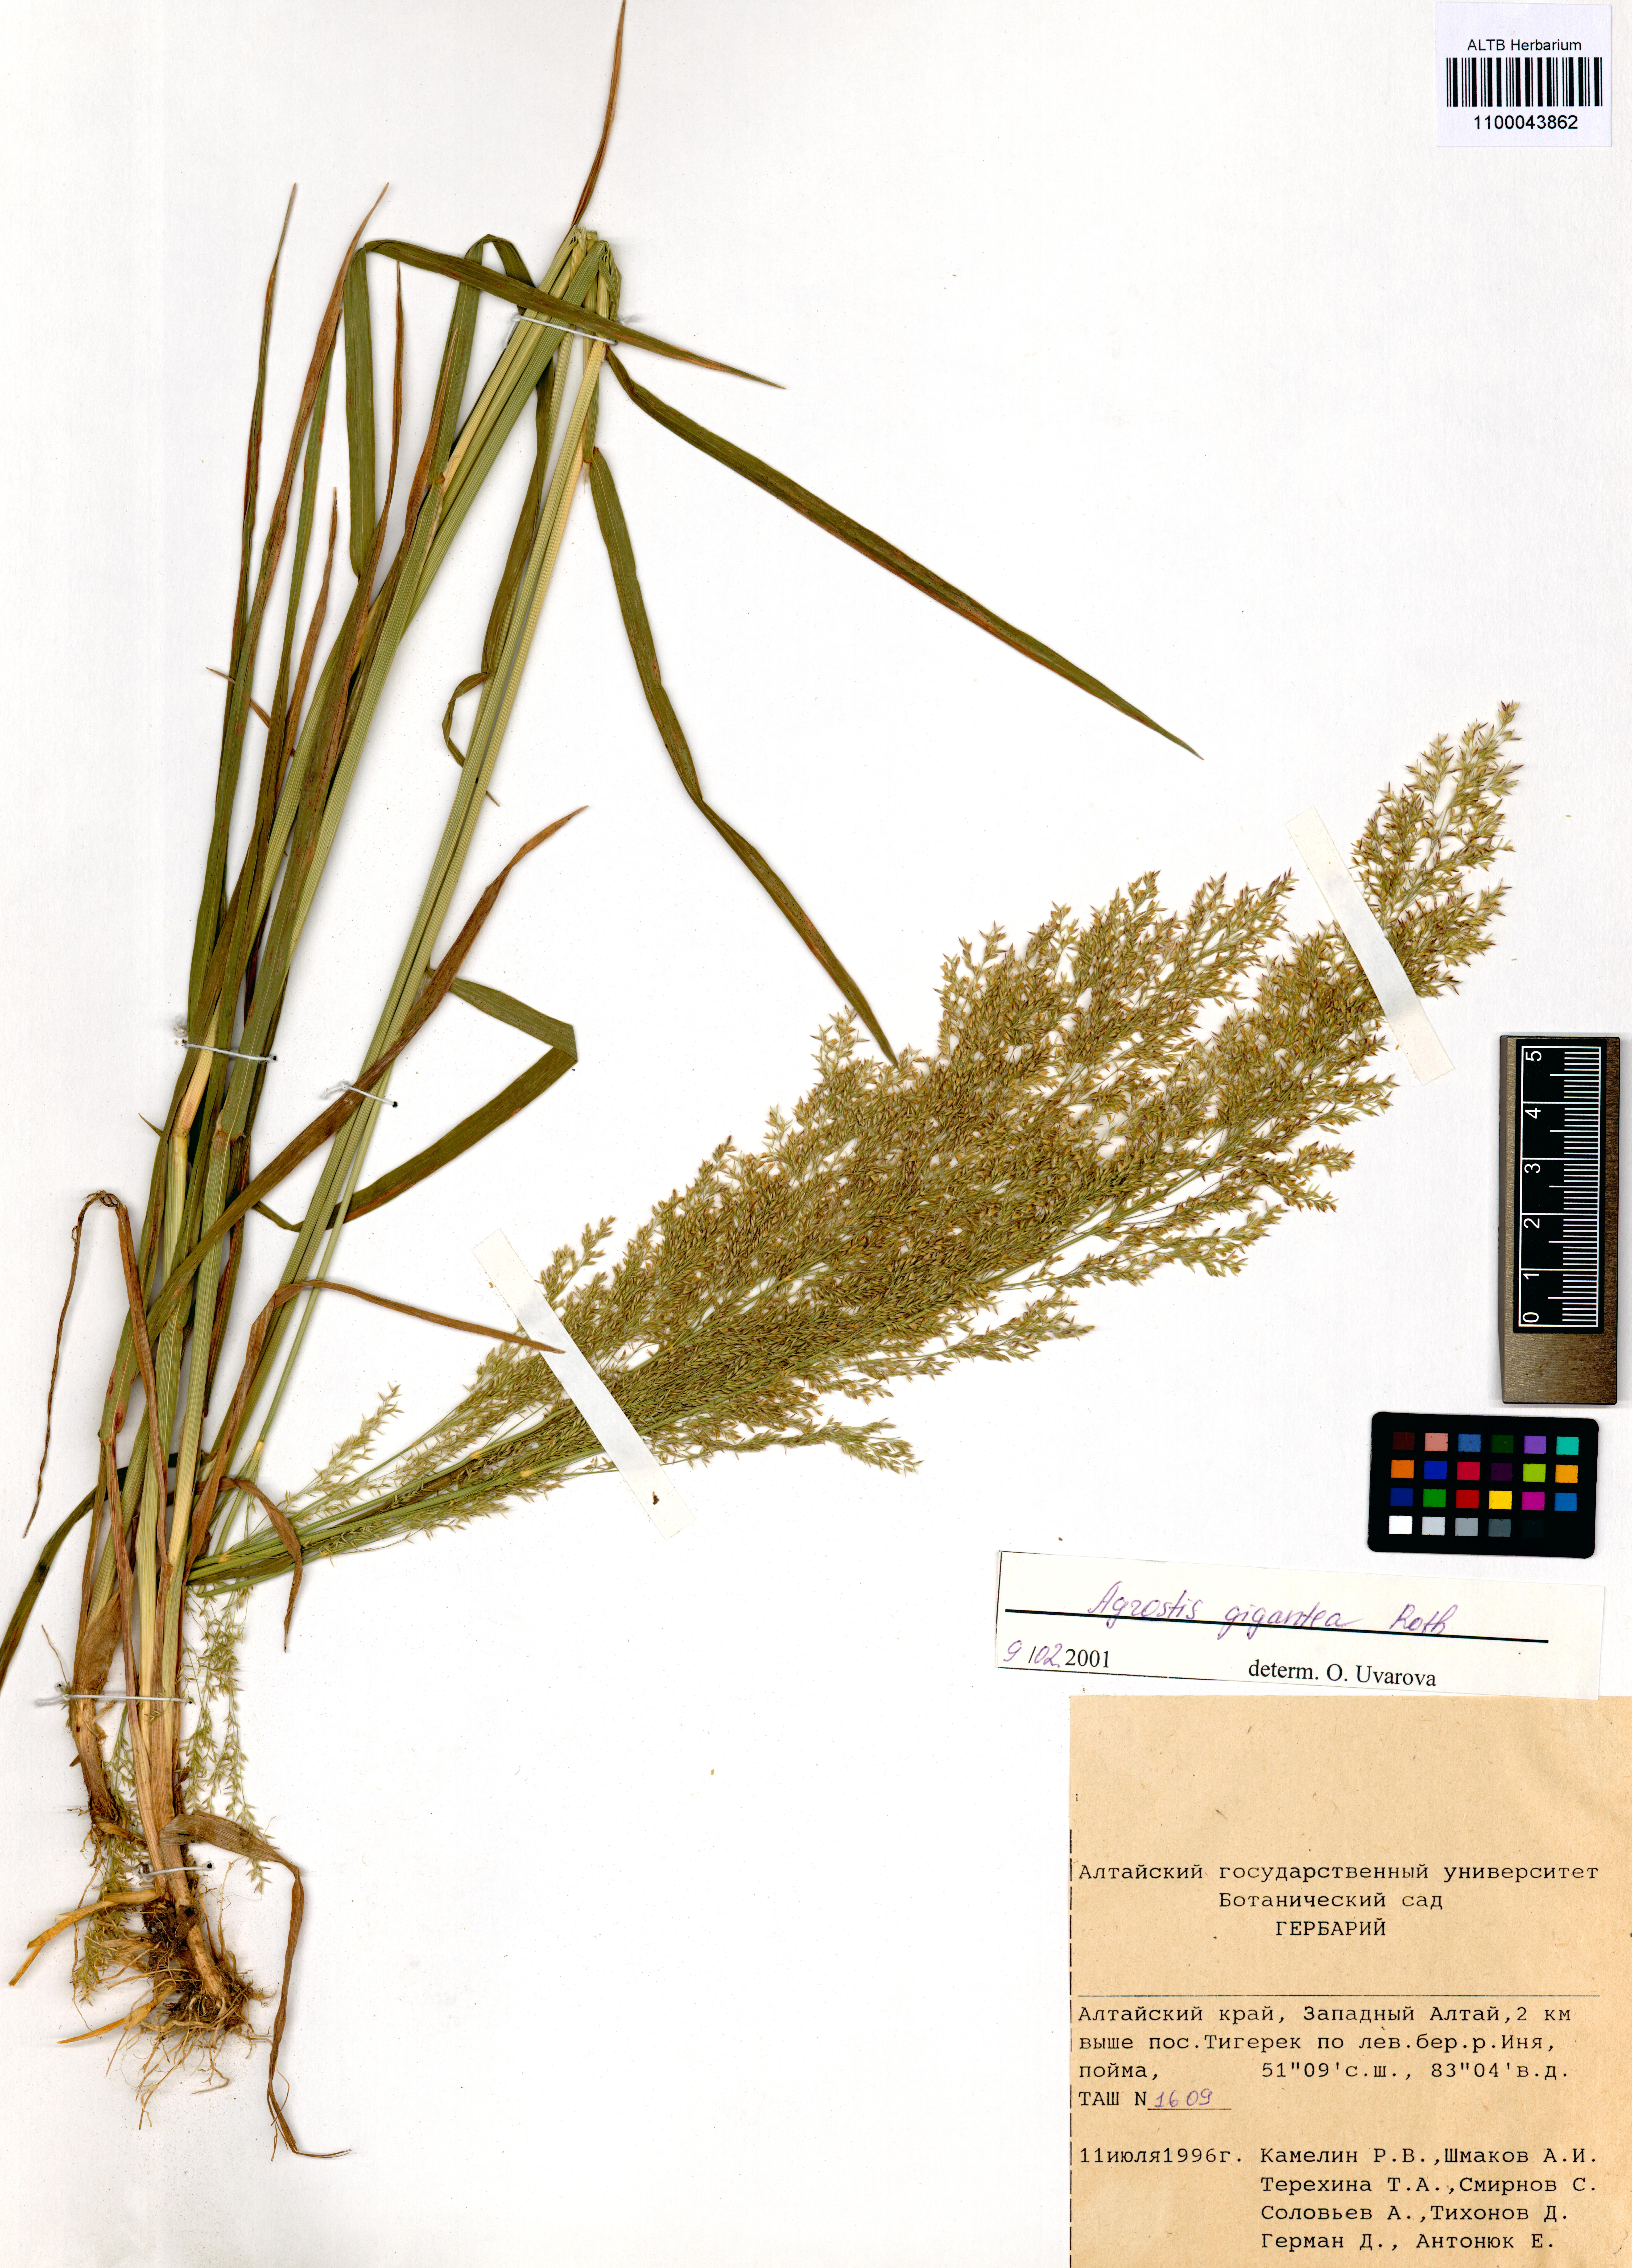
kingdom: Plantae
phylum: Tracheophyta
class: Liliopsida
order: Poales
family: Poaceae
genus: Agrostis
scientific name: Agrostis gigantea
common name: Black bent
